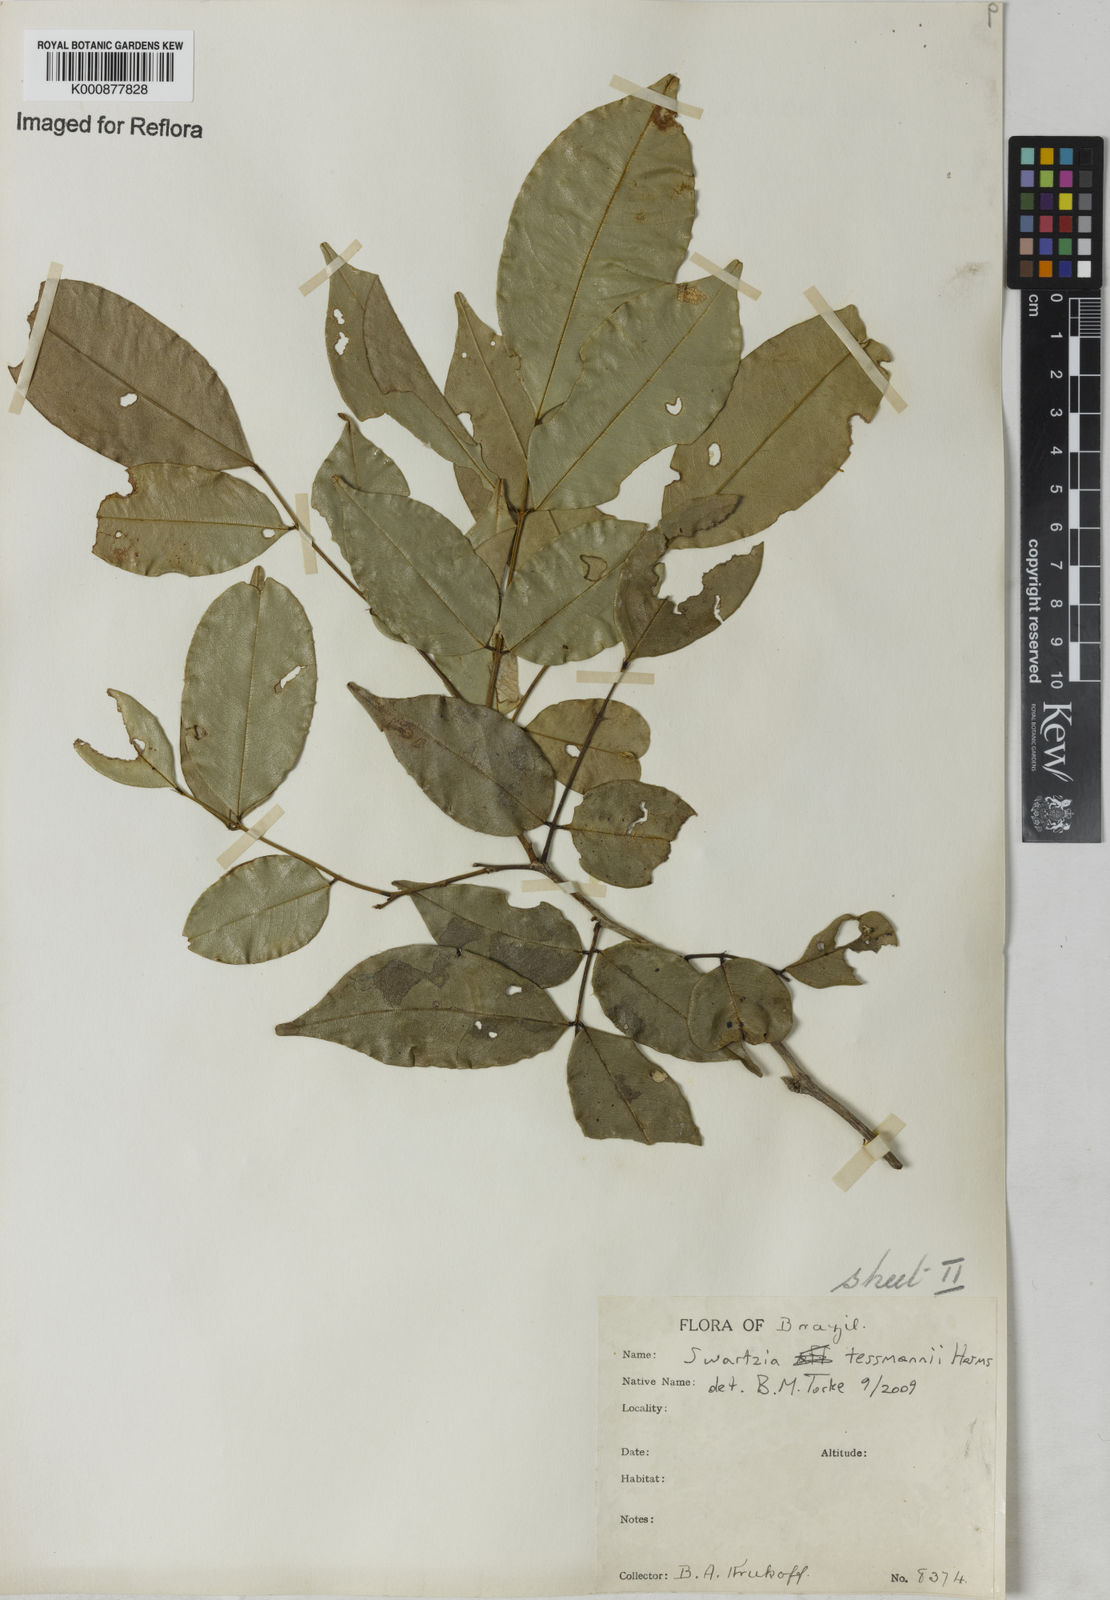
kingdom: Plantae
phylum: Tracheophyta
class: Magnoliopsida
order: Fabales
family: Fabaceae
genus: Swartzia
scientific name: Swartzia tessmannii
